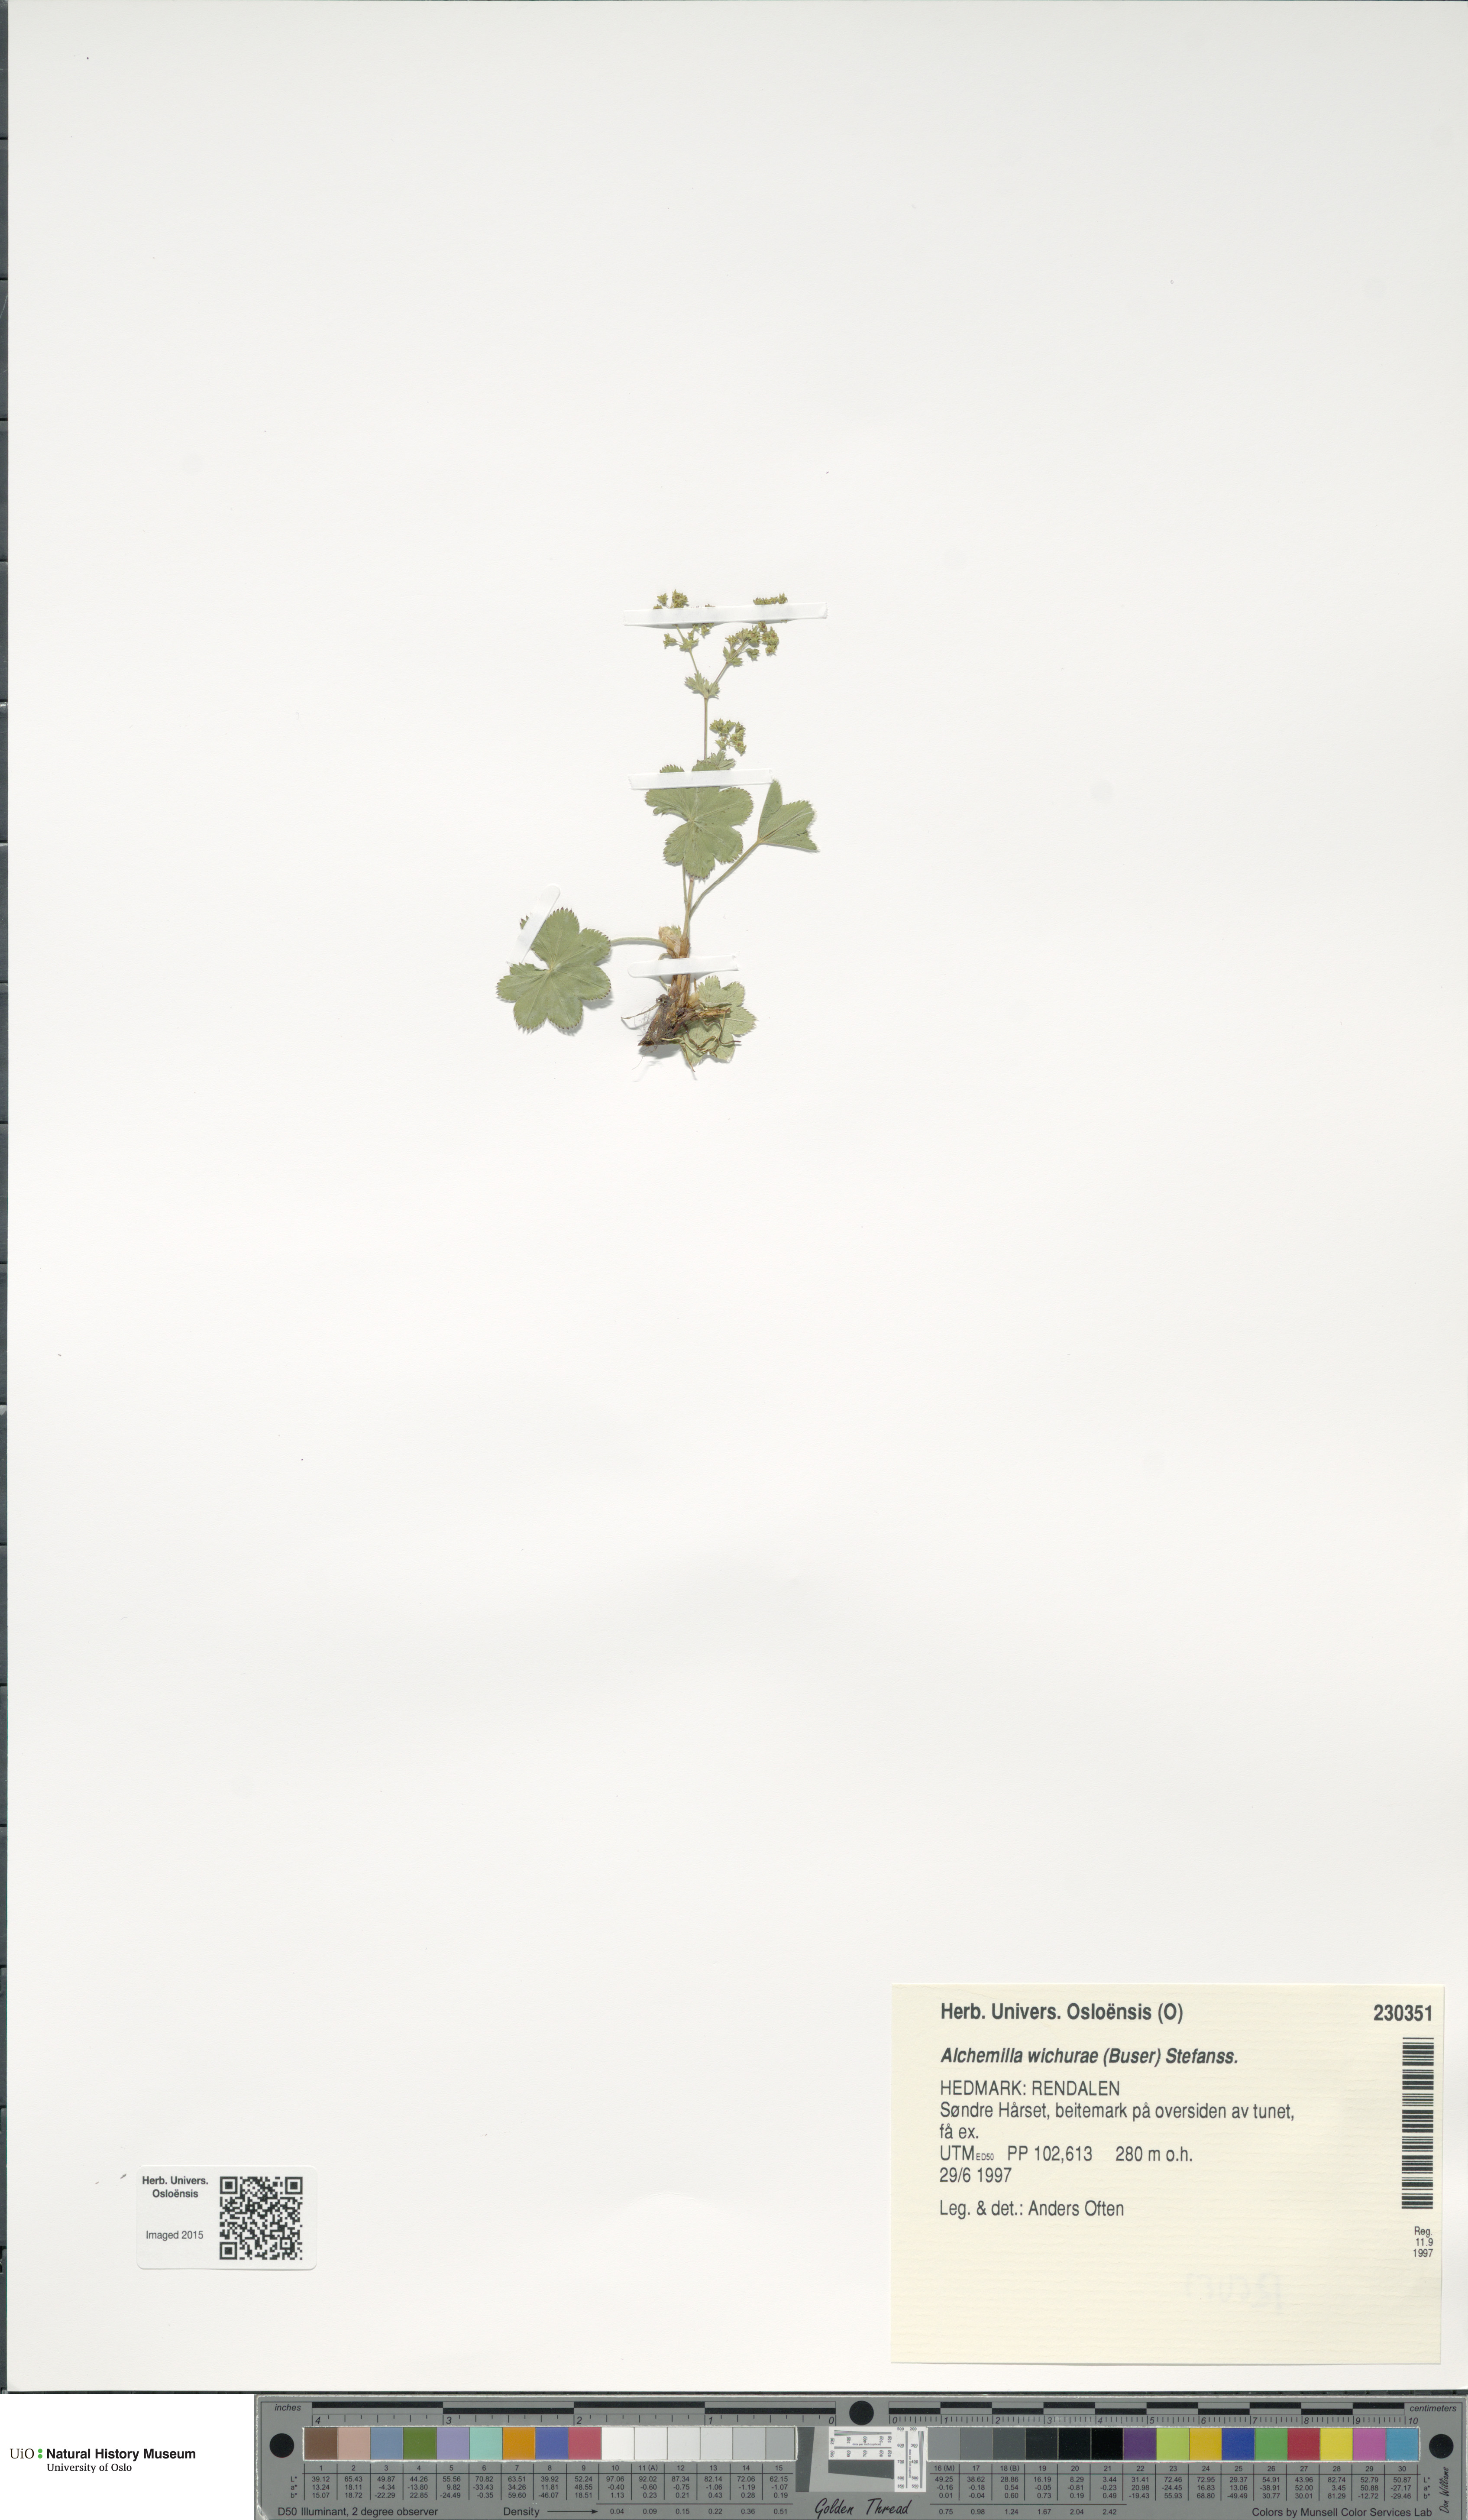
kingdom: Plantae
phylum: Tracheophyta
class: Magnoliopsida
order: Rosales
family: Rosaceae
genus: Alchemilla
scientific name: Alchemilla wichurae
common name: Rock lady's mantle
